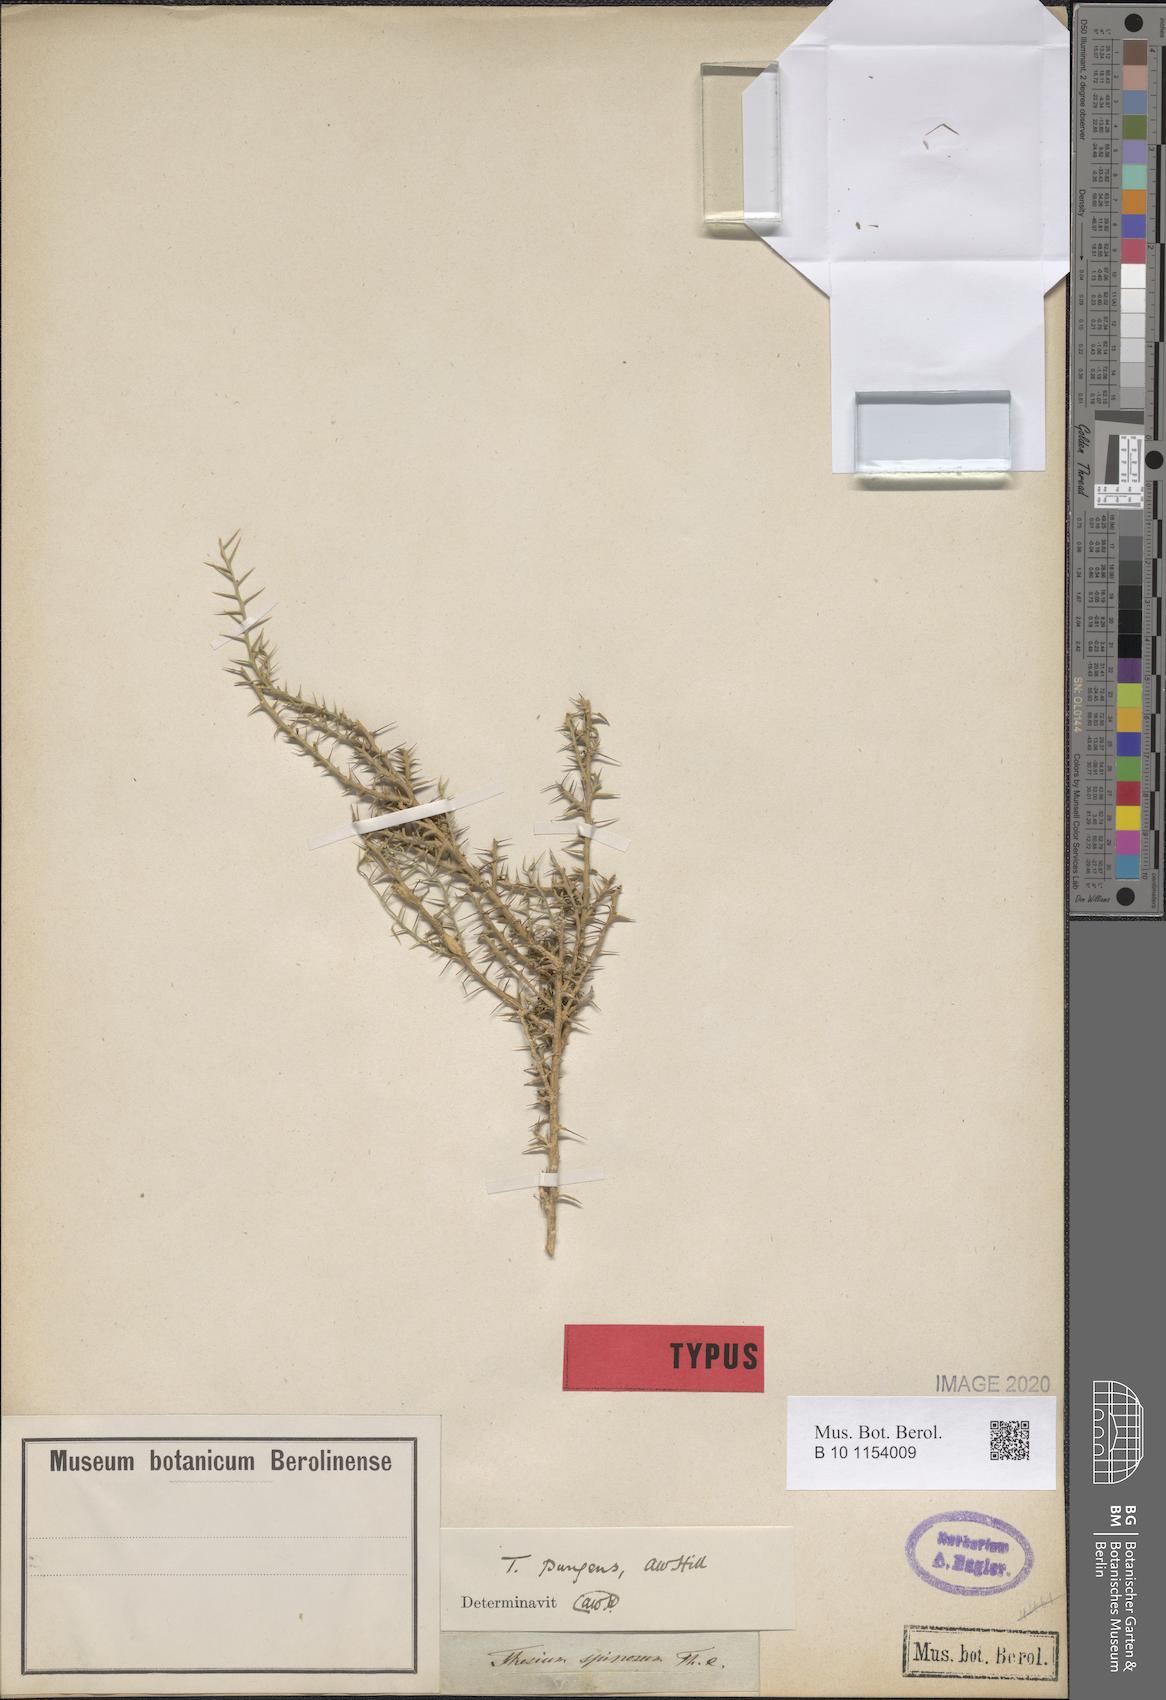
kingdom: Plantae
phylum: Tracheophyta
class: Magnoliopsida
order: Santalales
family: Thesiaceae
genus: Thesium
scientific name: Thesium pungens
